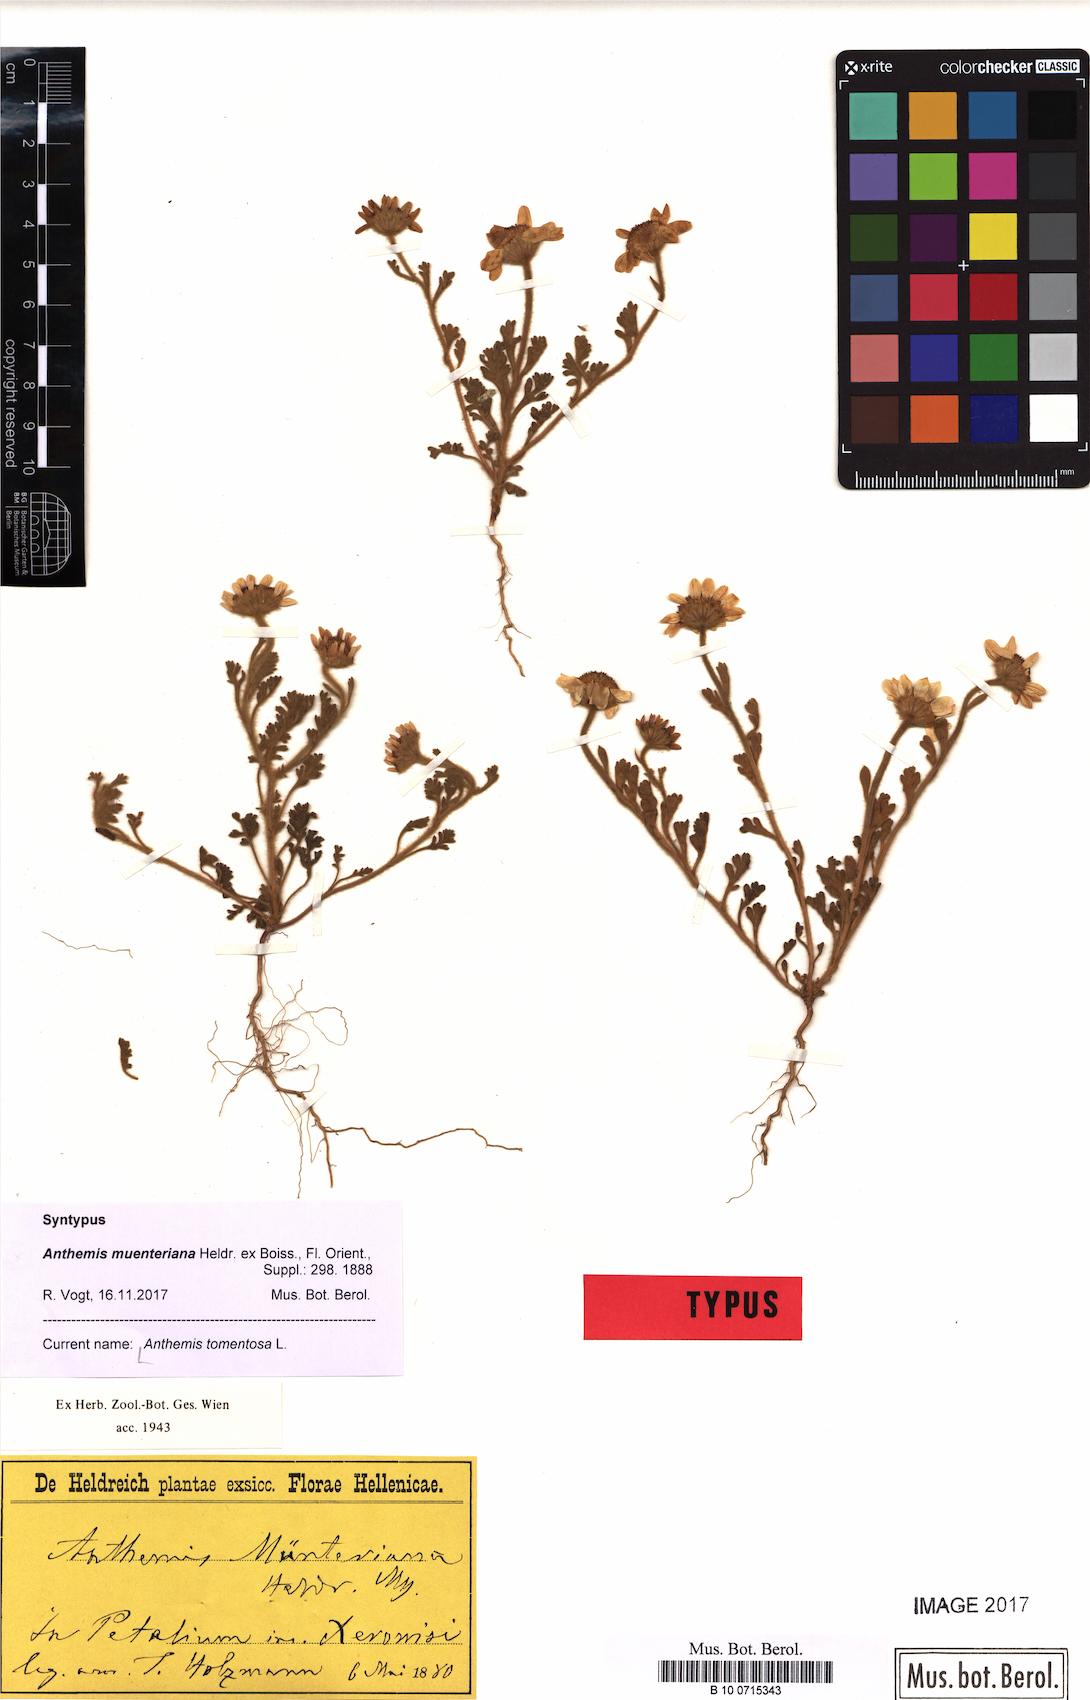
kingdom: Plantae
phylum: Tracheophyta
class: Magnoliopsida
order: Asterales
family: Asteraceae
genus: Anthemis
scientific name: Anthemis tomentosa
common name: Woolly chamomile
